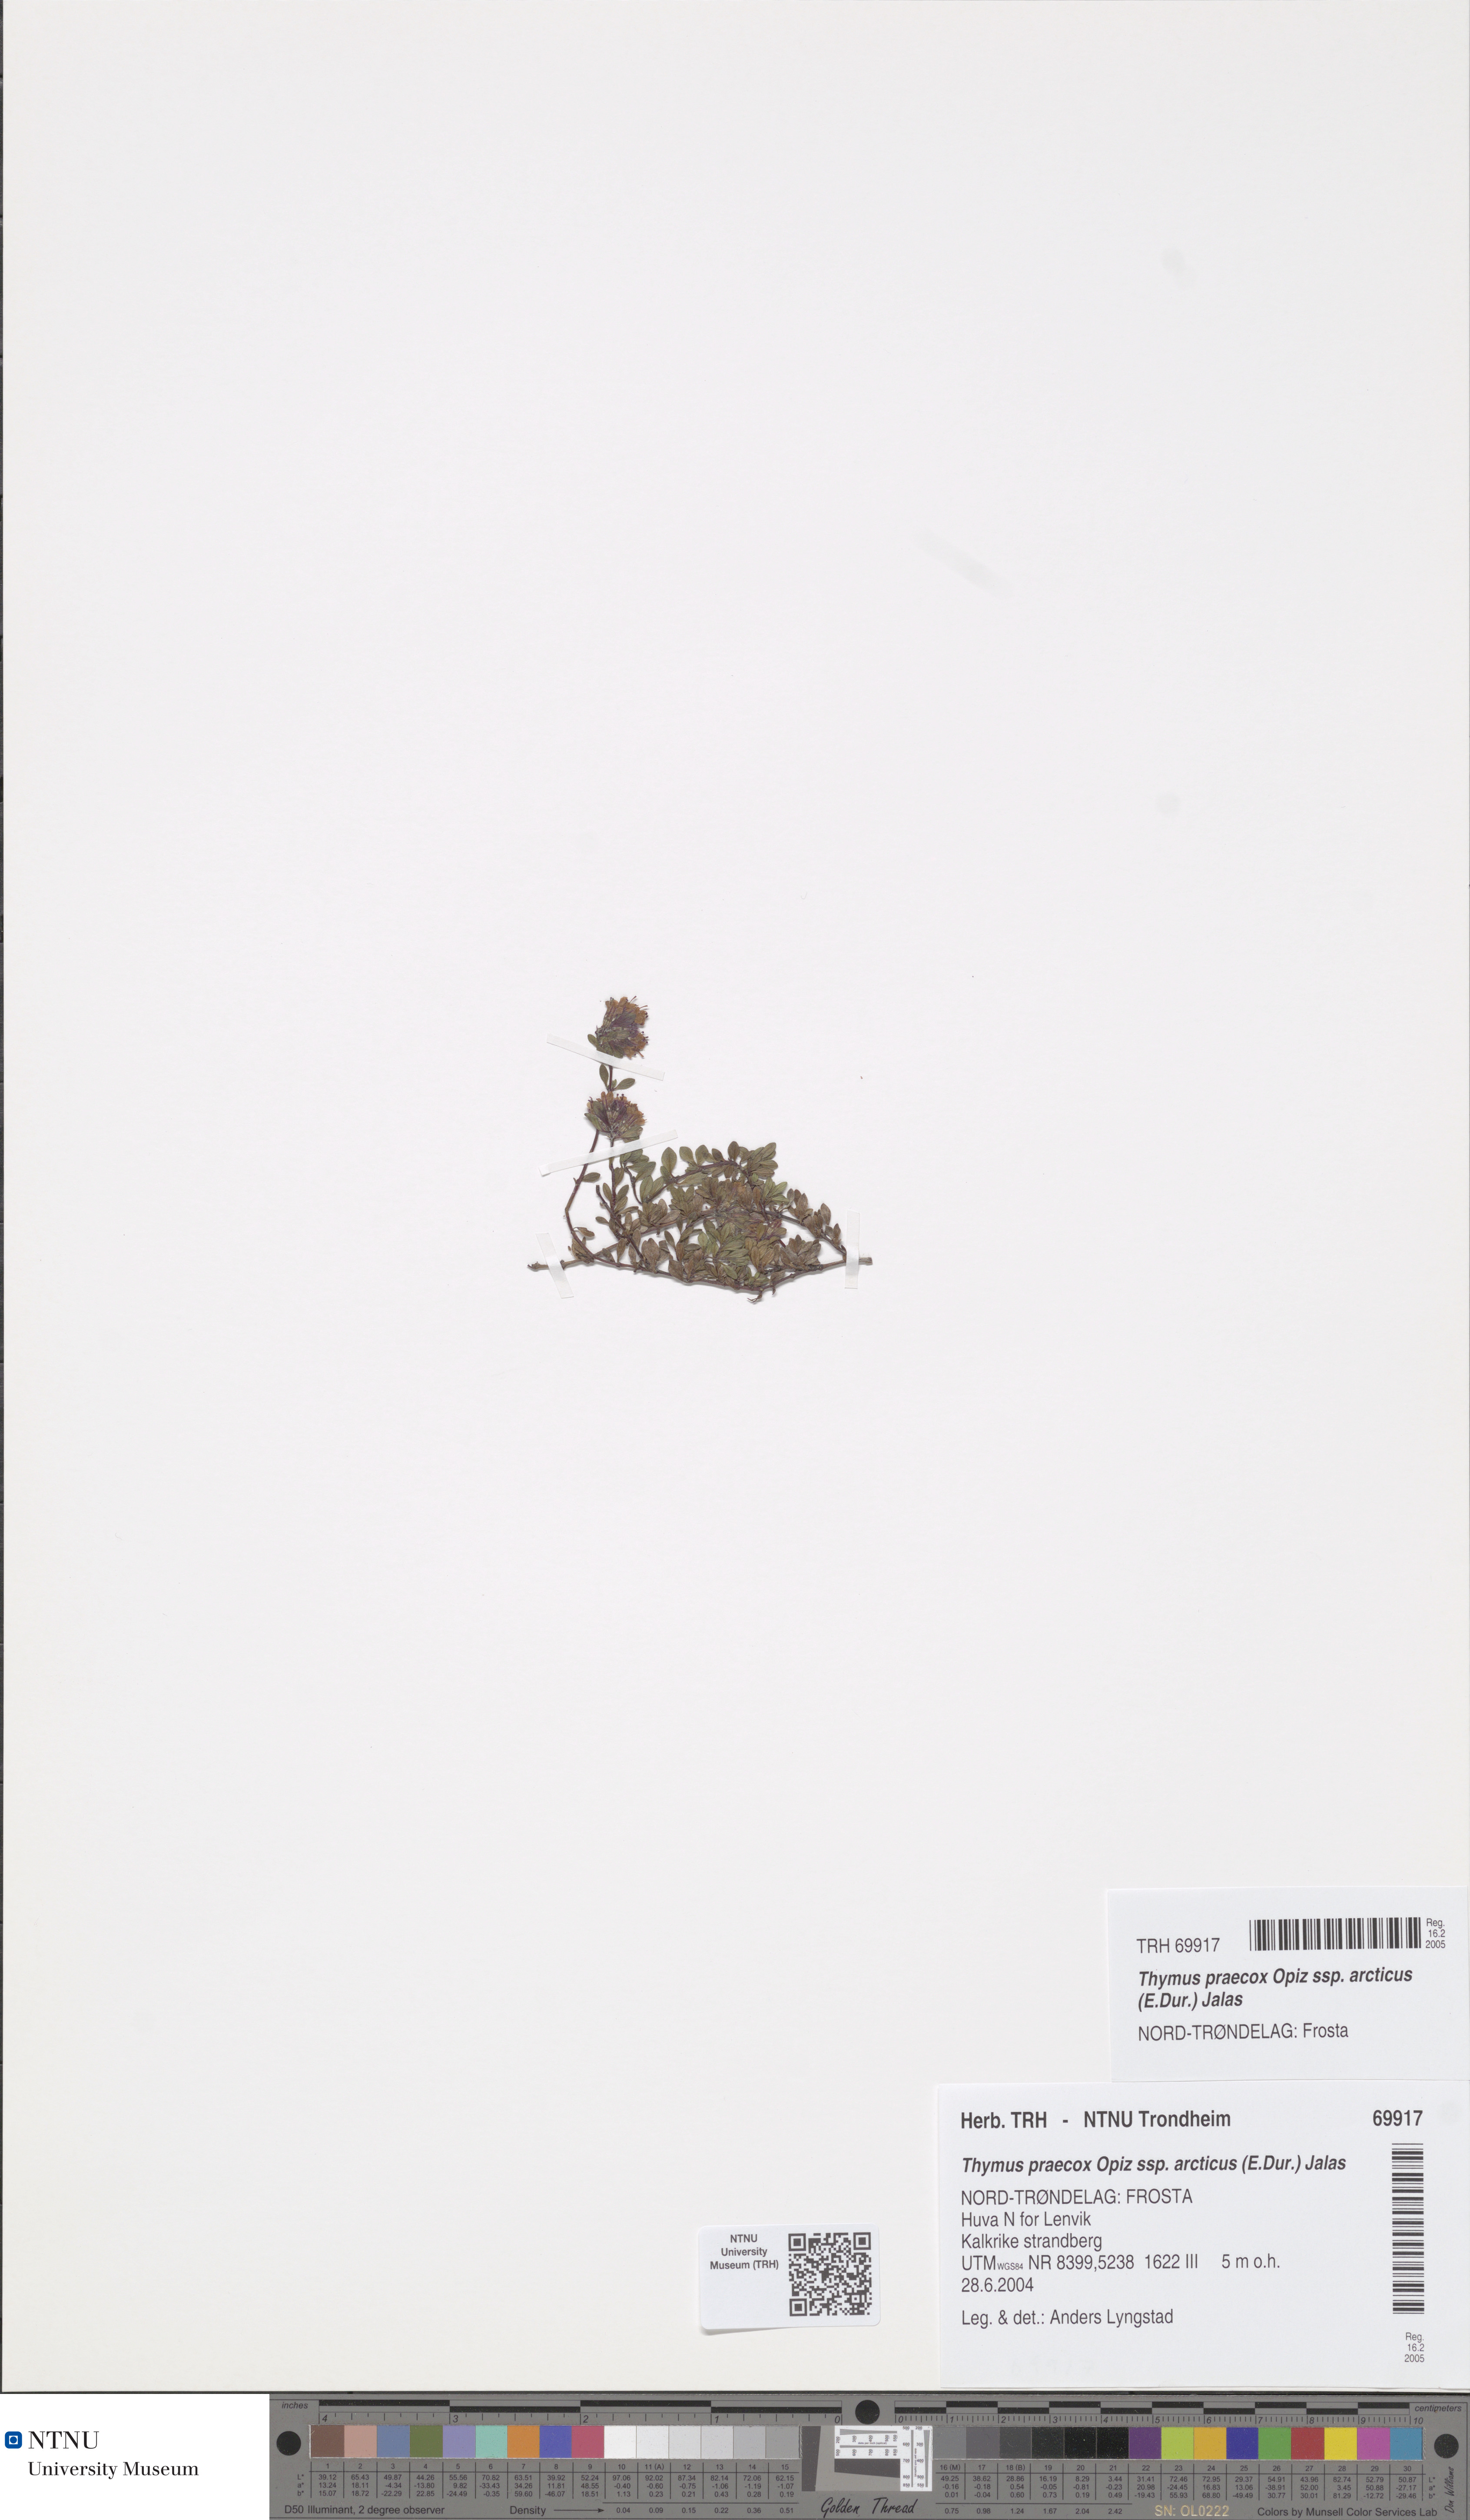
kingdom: Plantae
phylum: Tracheophyta
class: Magnoliopsida
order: Lamiales
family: Lamiaceae
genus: Thymus
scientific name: Thymus praecox
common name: Wild thyme
